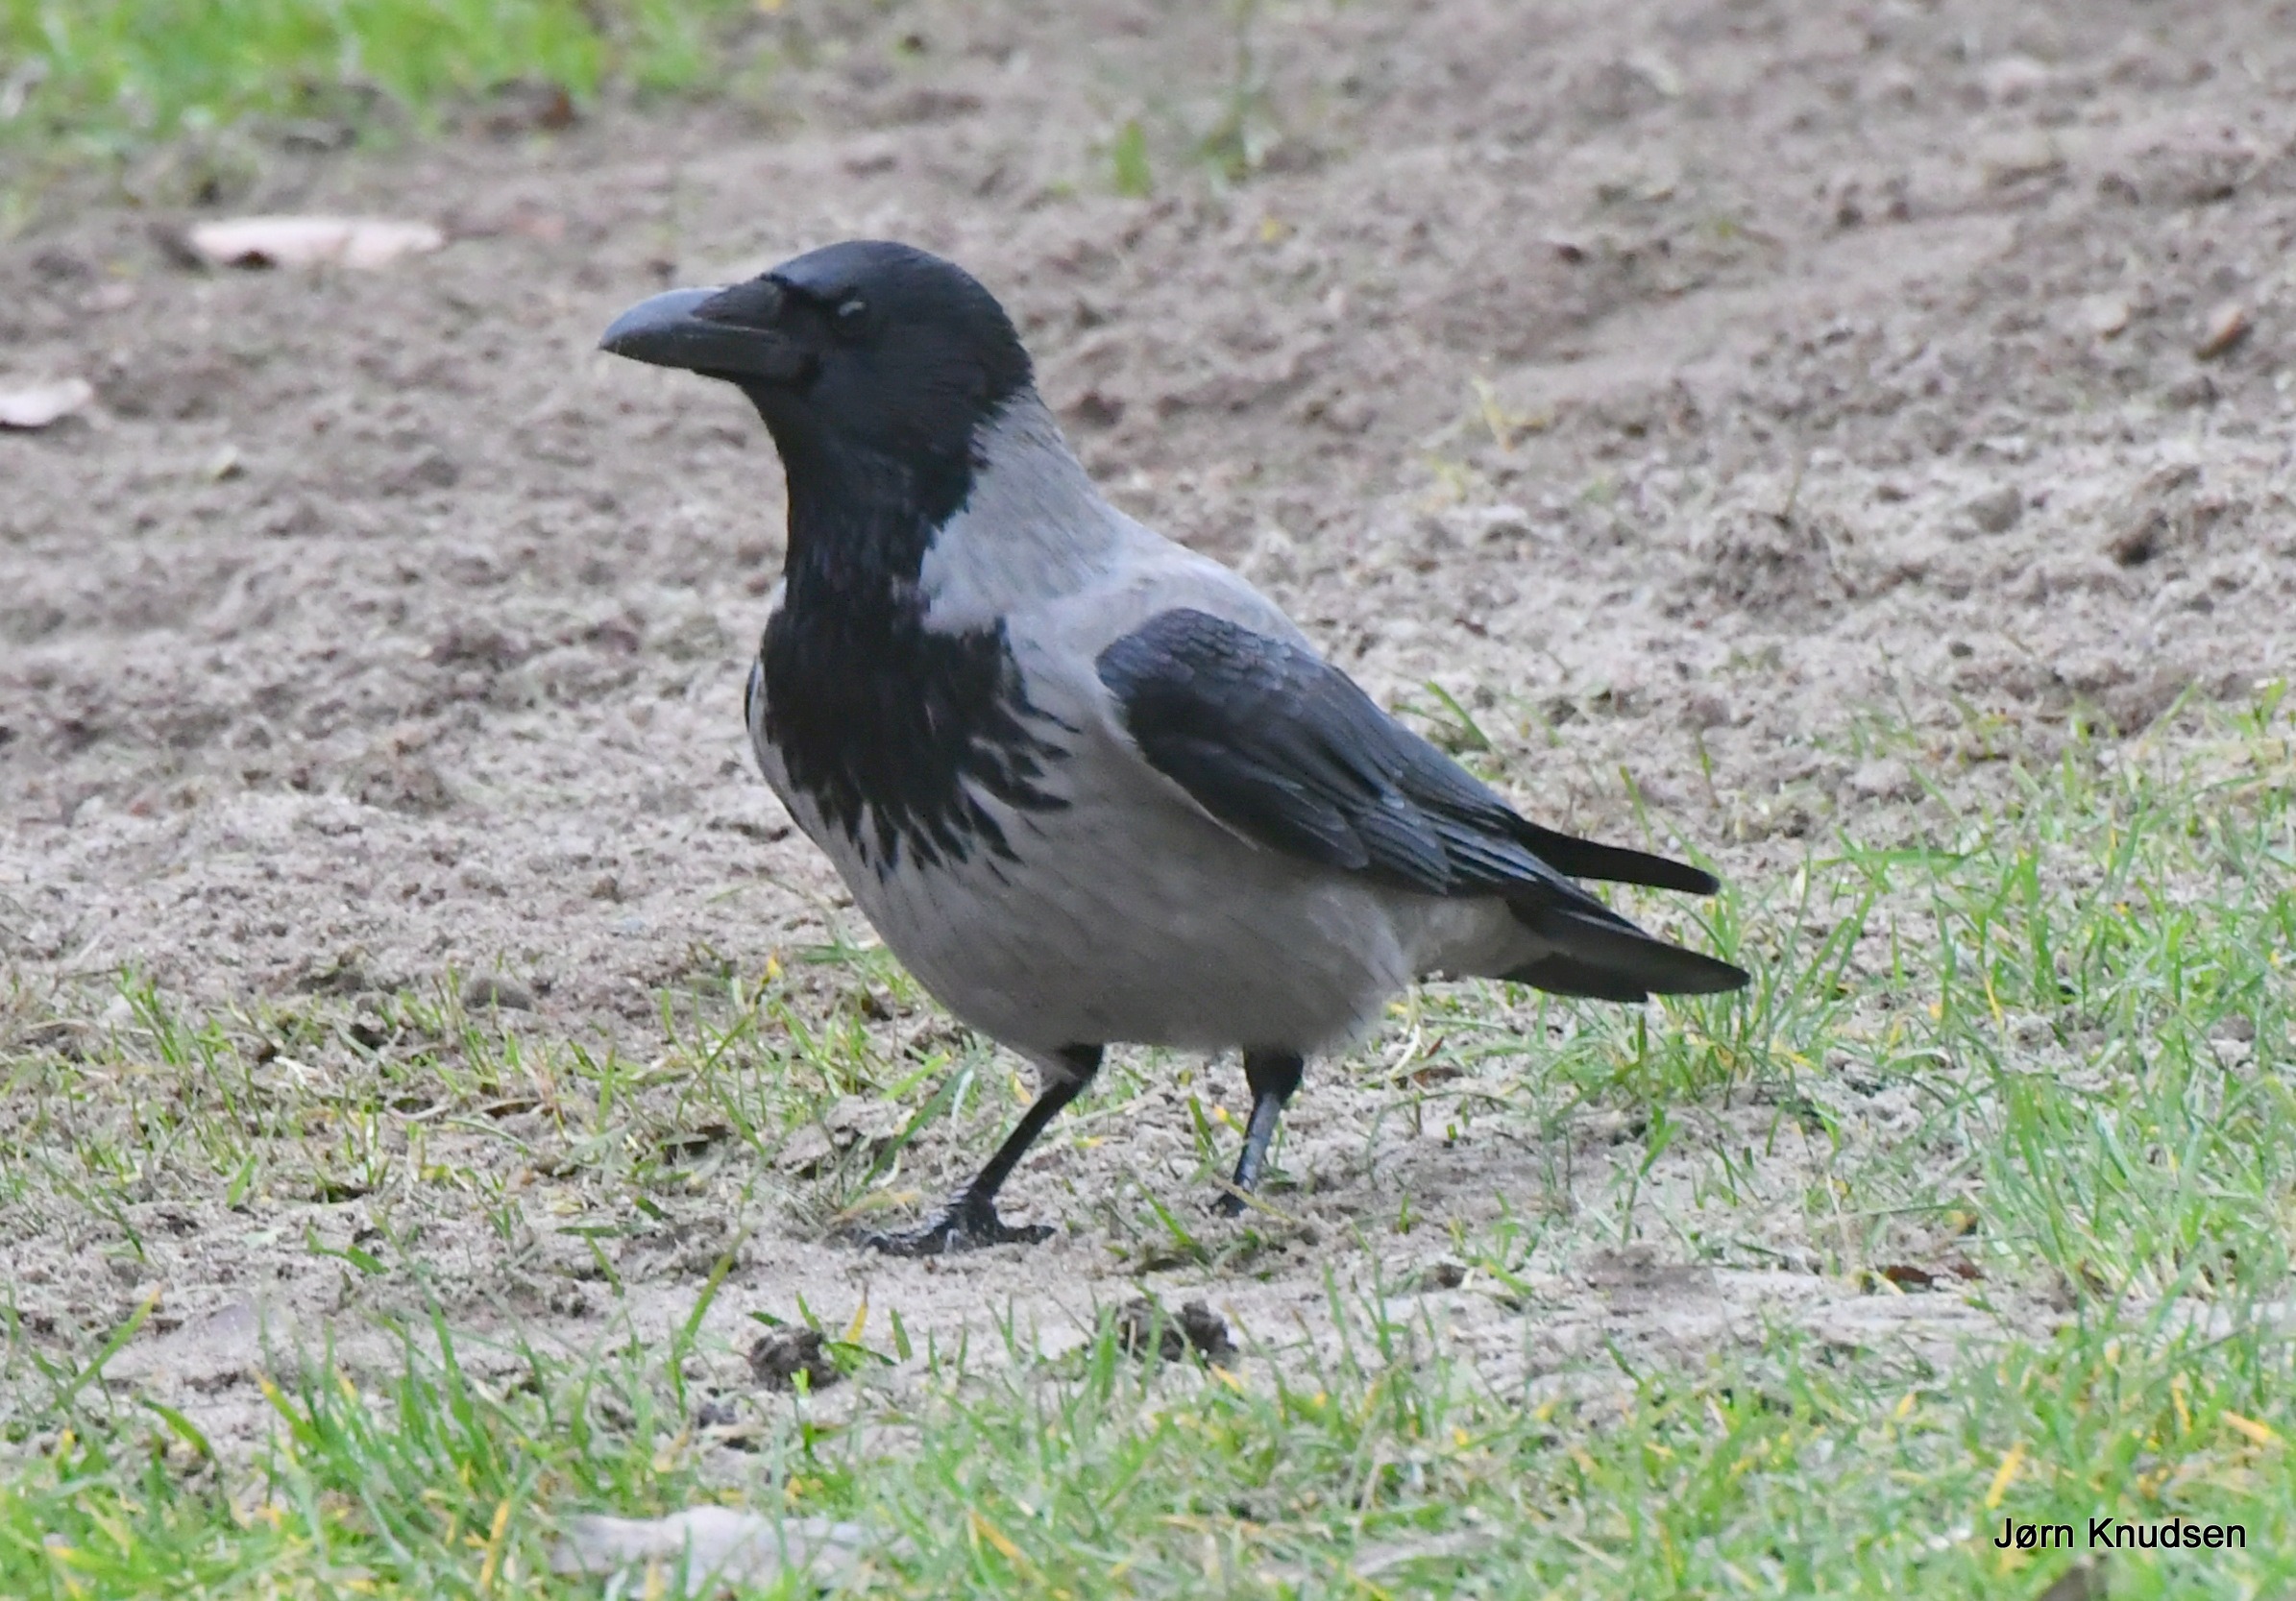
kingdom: Animalia
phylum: Chordata
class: Aves
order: Passeriformes
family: Corvidae
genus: Corvus
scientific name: Corvus cornix
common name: Gråkrage
